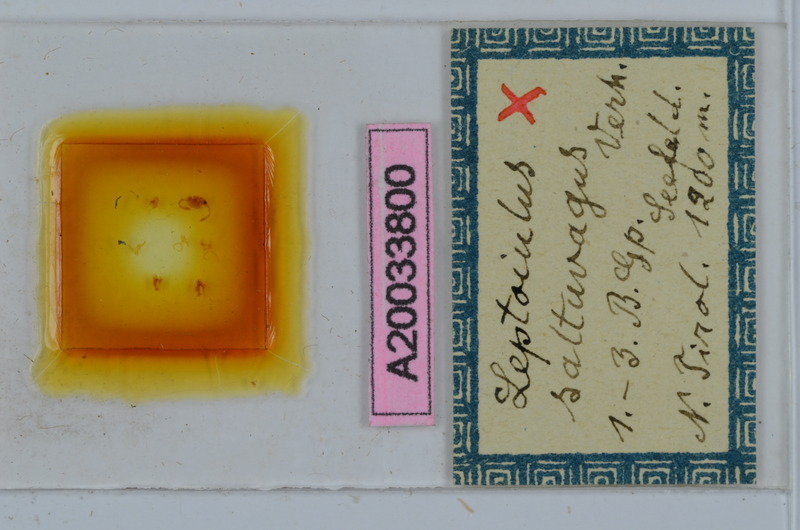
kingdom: Animalia
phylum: Arthropoda
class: Diplopoda
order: Julida
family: Julidae
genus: Leptoiulus
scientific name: Leptoiulus saltuvagus
